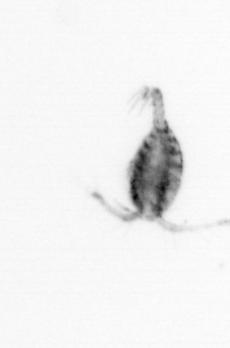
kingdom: Animalia
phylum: Arthropoda
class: Copepoda
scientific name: Copepoda
